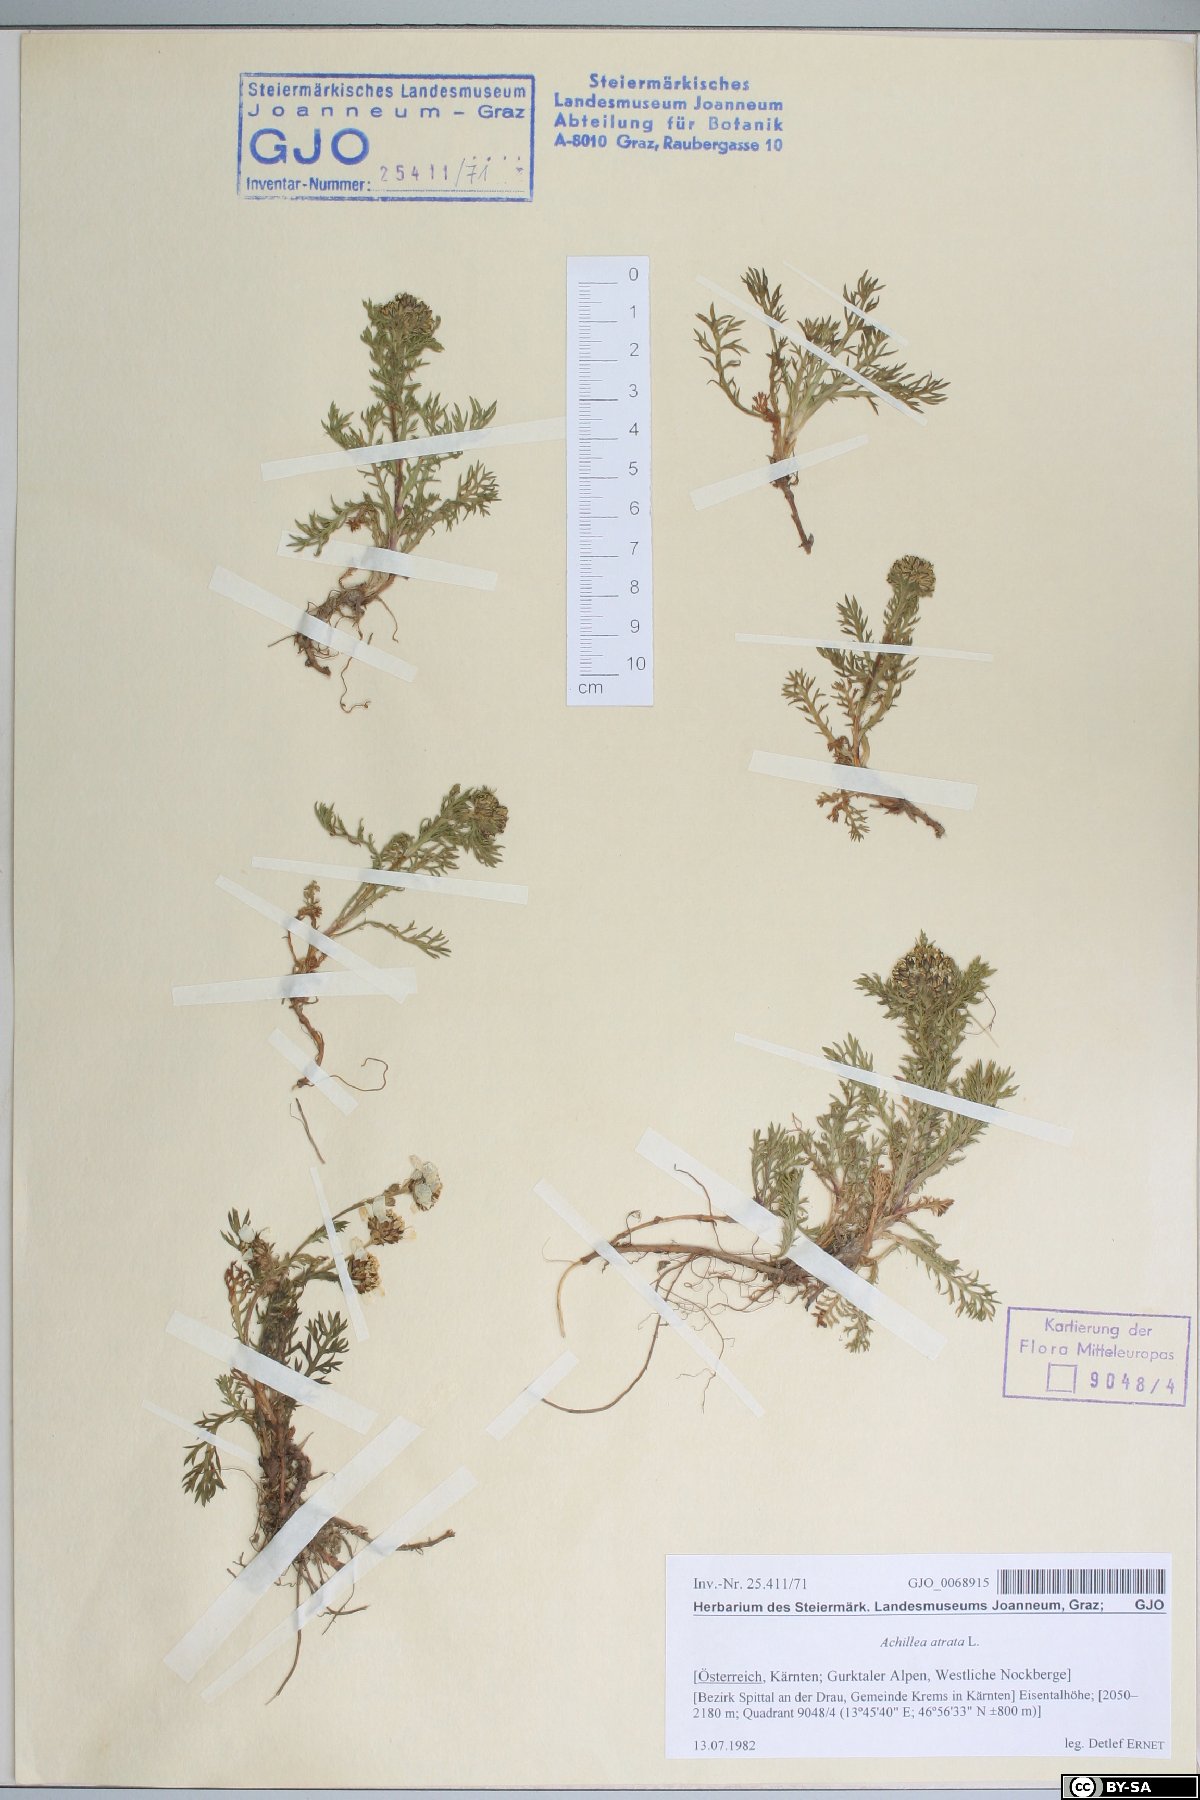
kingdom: Plantae
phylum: Tracheophyta
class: Magnoliopsida
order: Asterales
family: Asteraceae
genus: Achillea
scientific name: Achillea atrata
